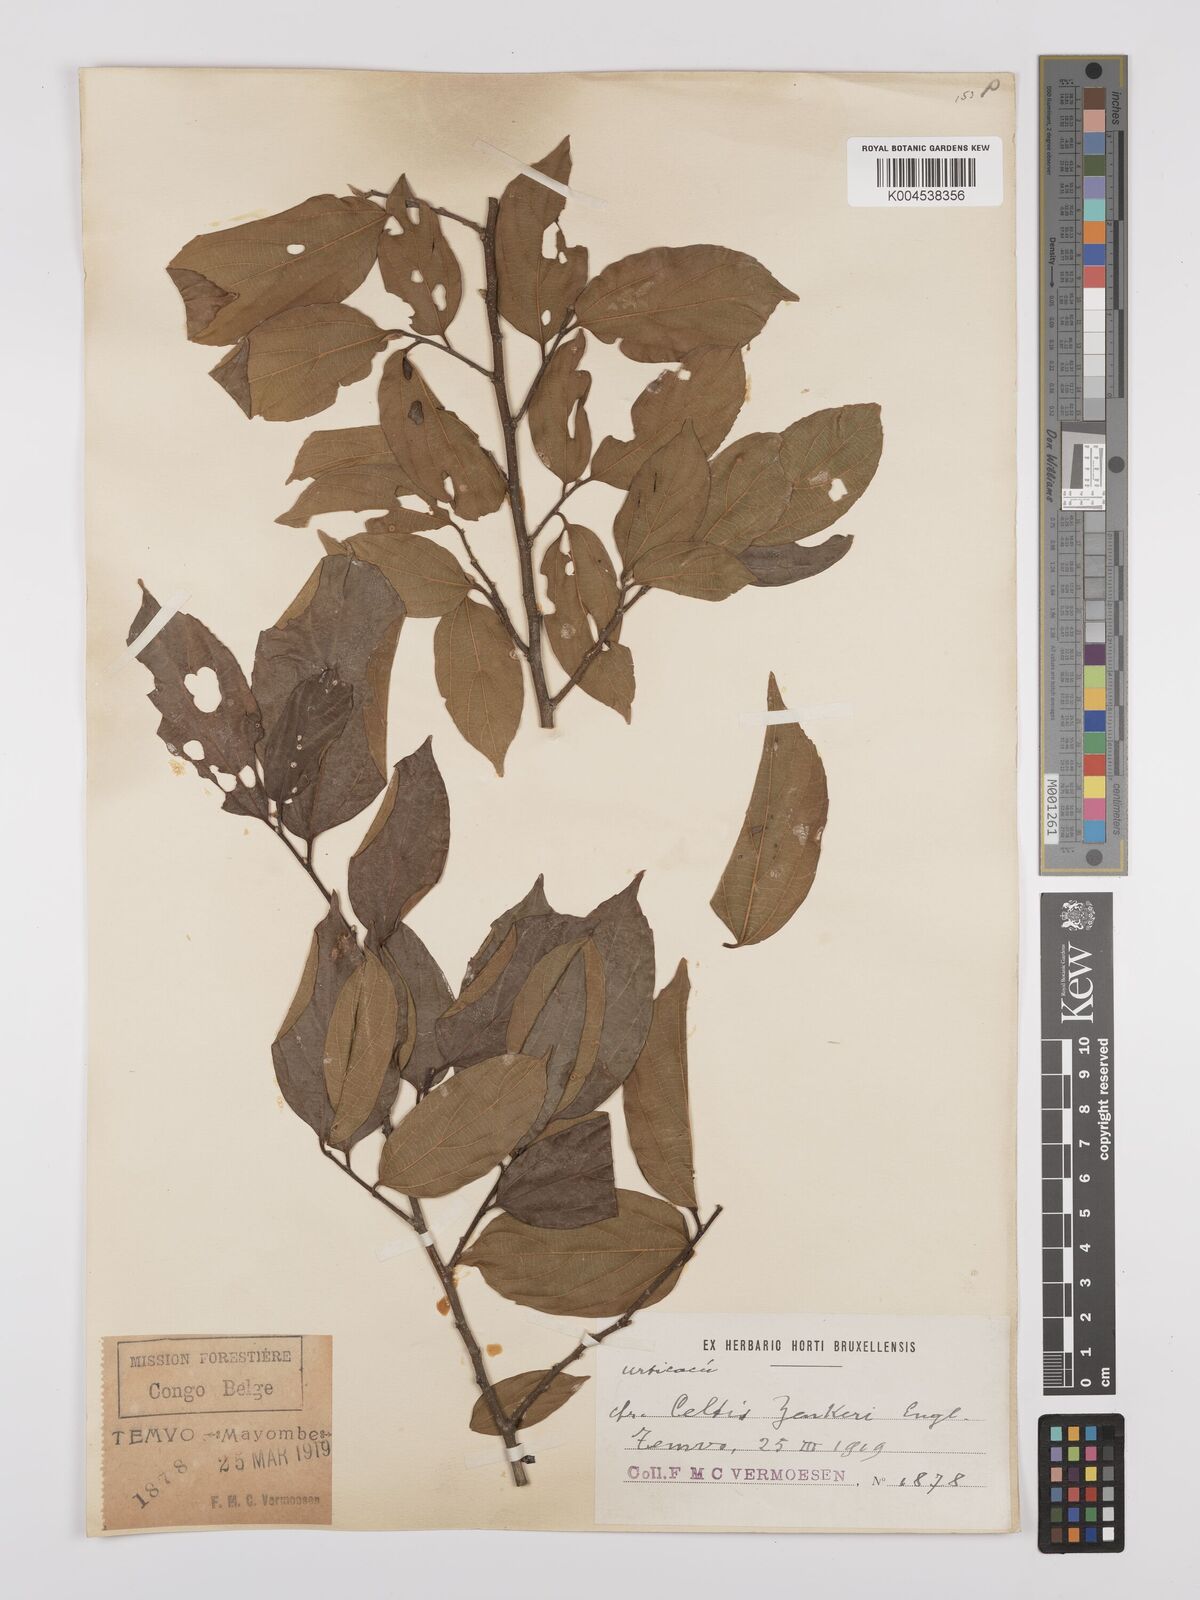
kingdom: Plantae
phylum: Tracheophyta
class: Magnoliopsida
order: Rosales
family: Cannabaceae
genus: Celtis
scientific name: Celtis zenkeri
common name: African celtis
